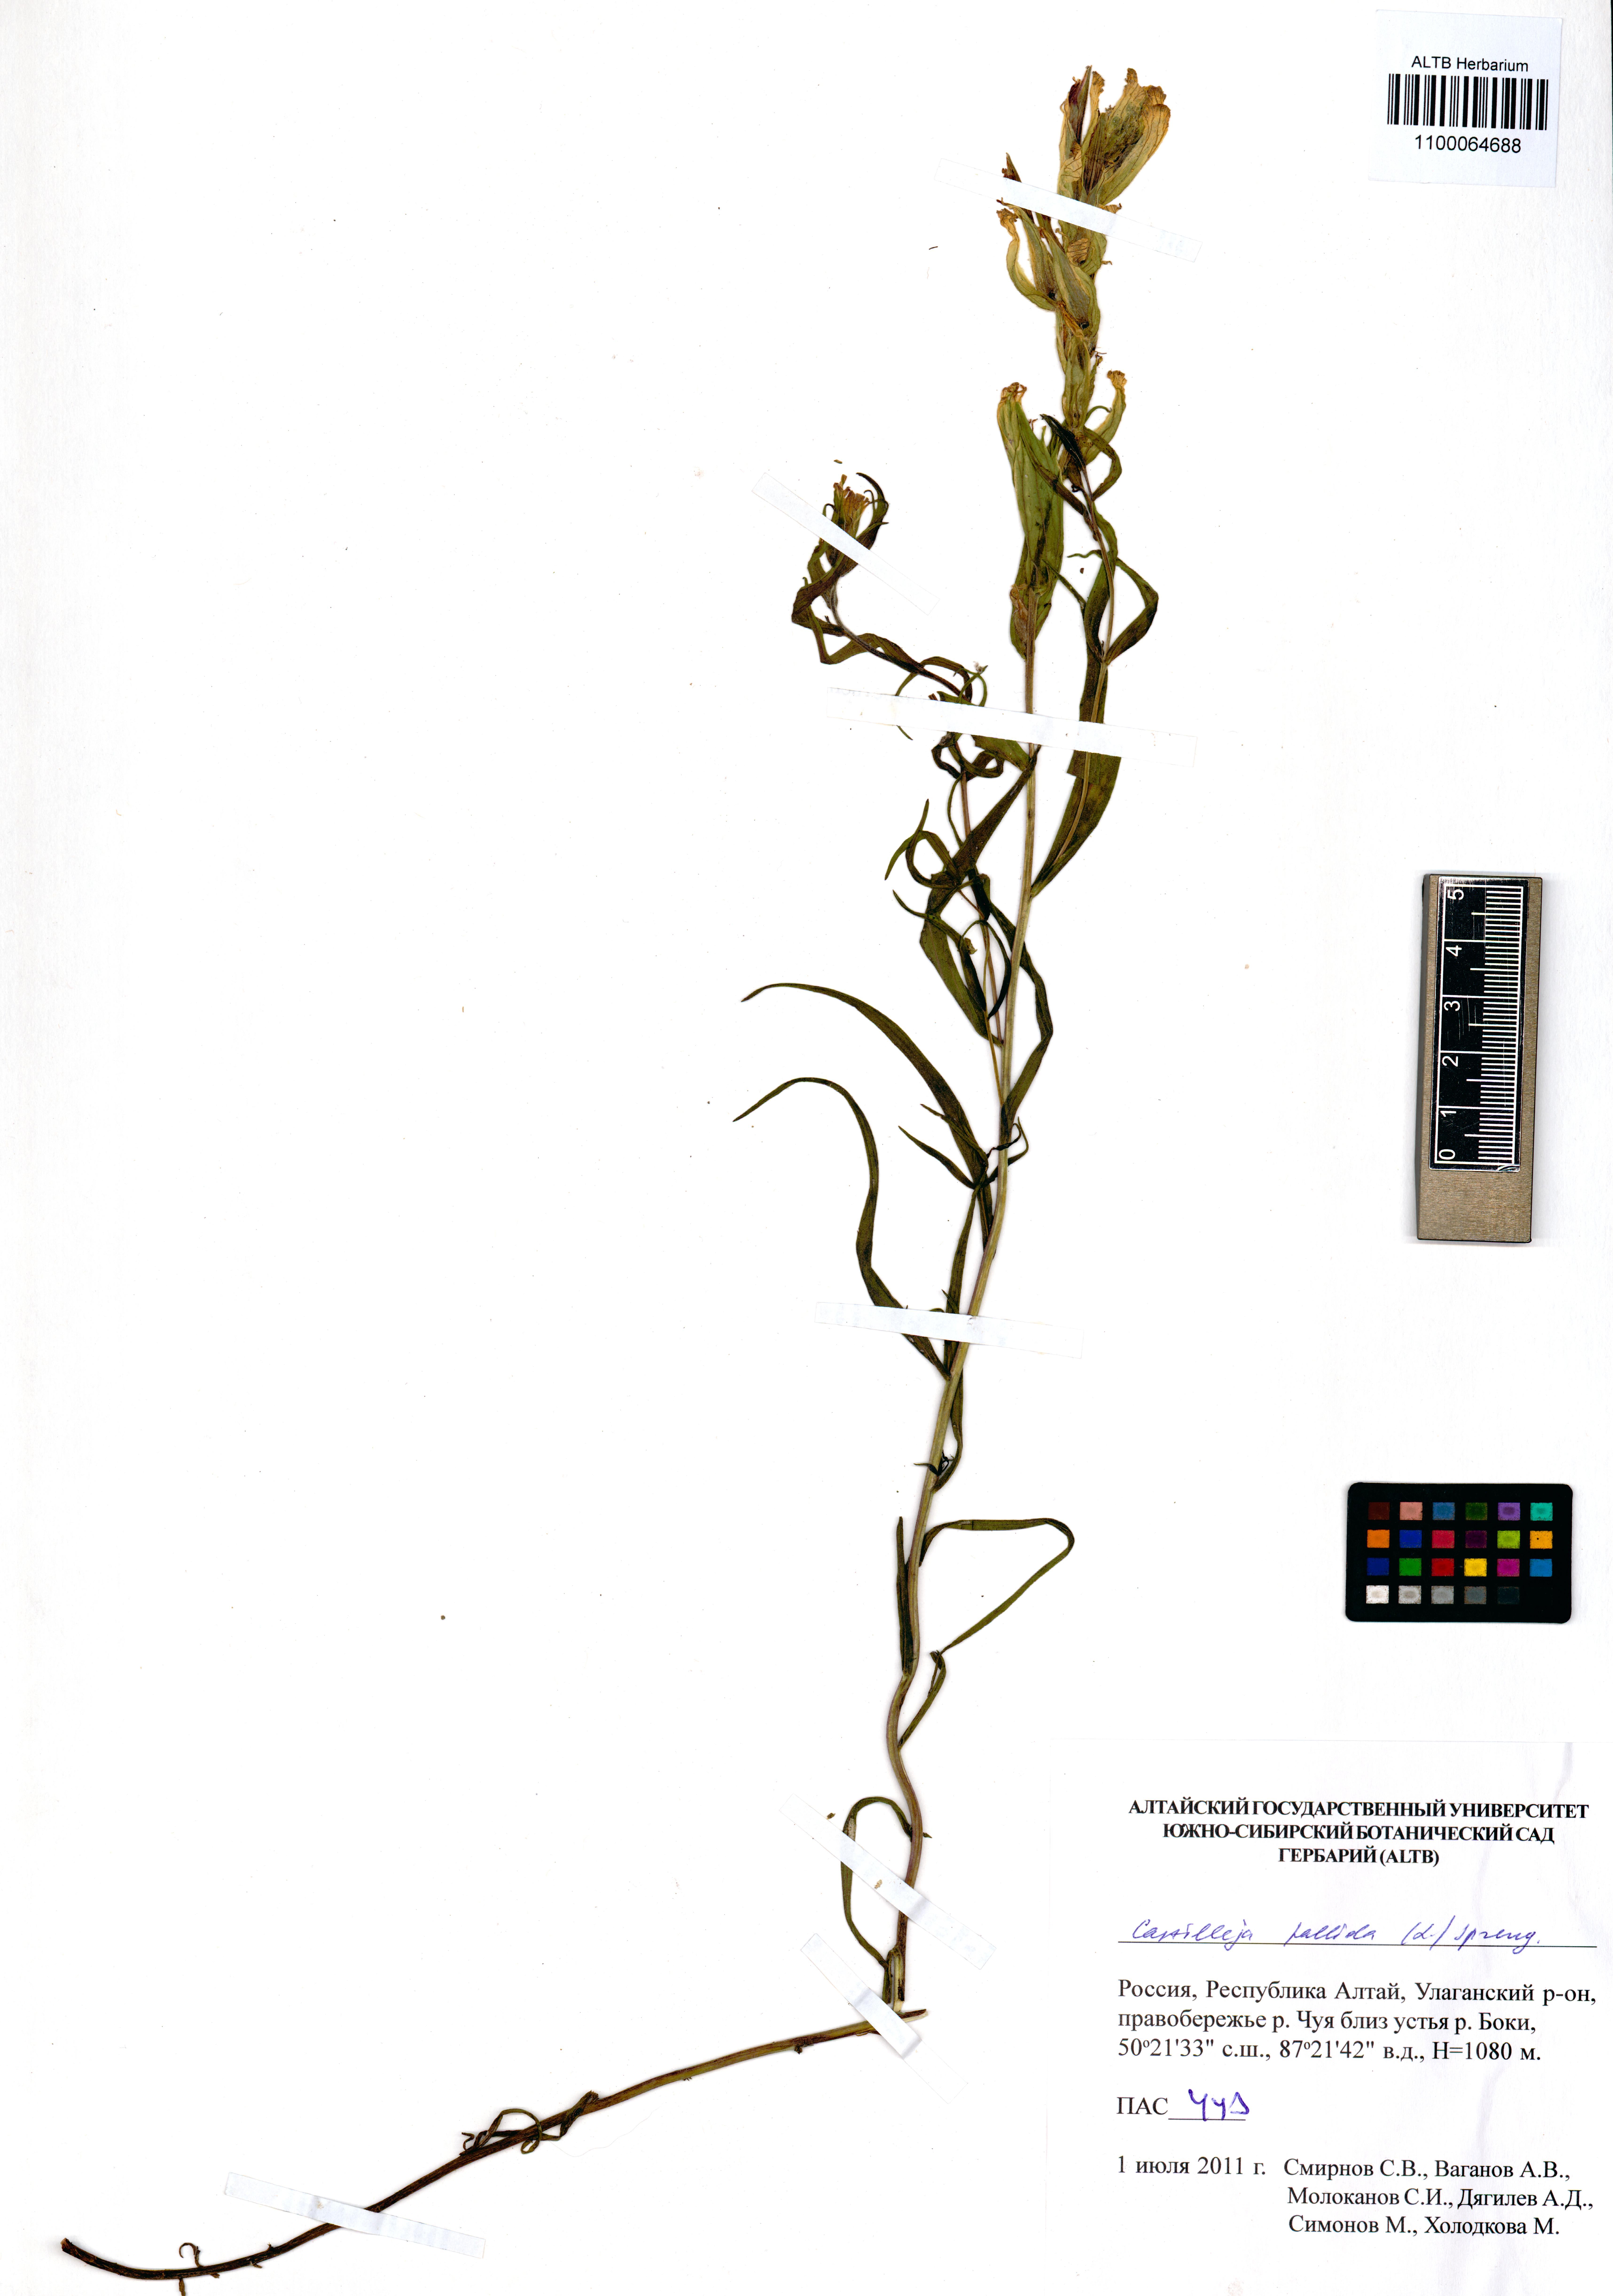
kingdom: Plantae
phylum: Tracheophyta
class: Magnoliopsida
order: Lamiales
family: Orobanchaceae
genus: Castilleja
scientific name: Castilleja pallida
